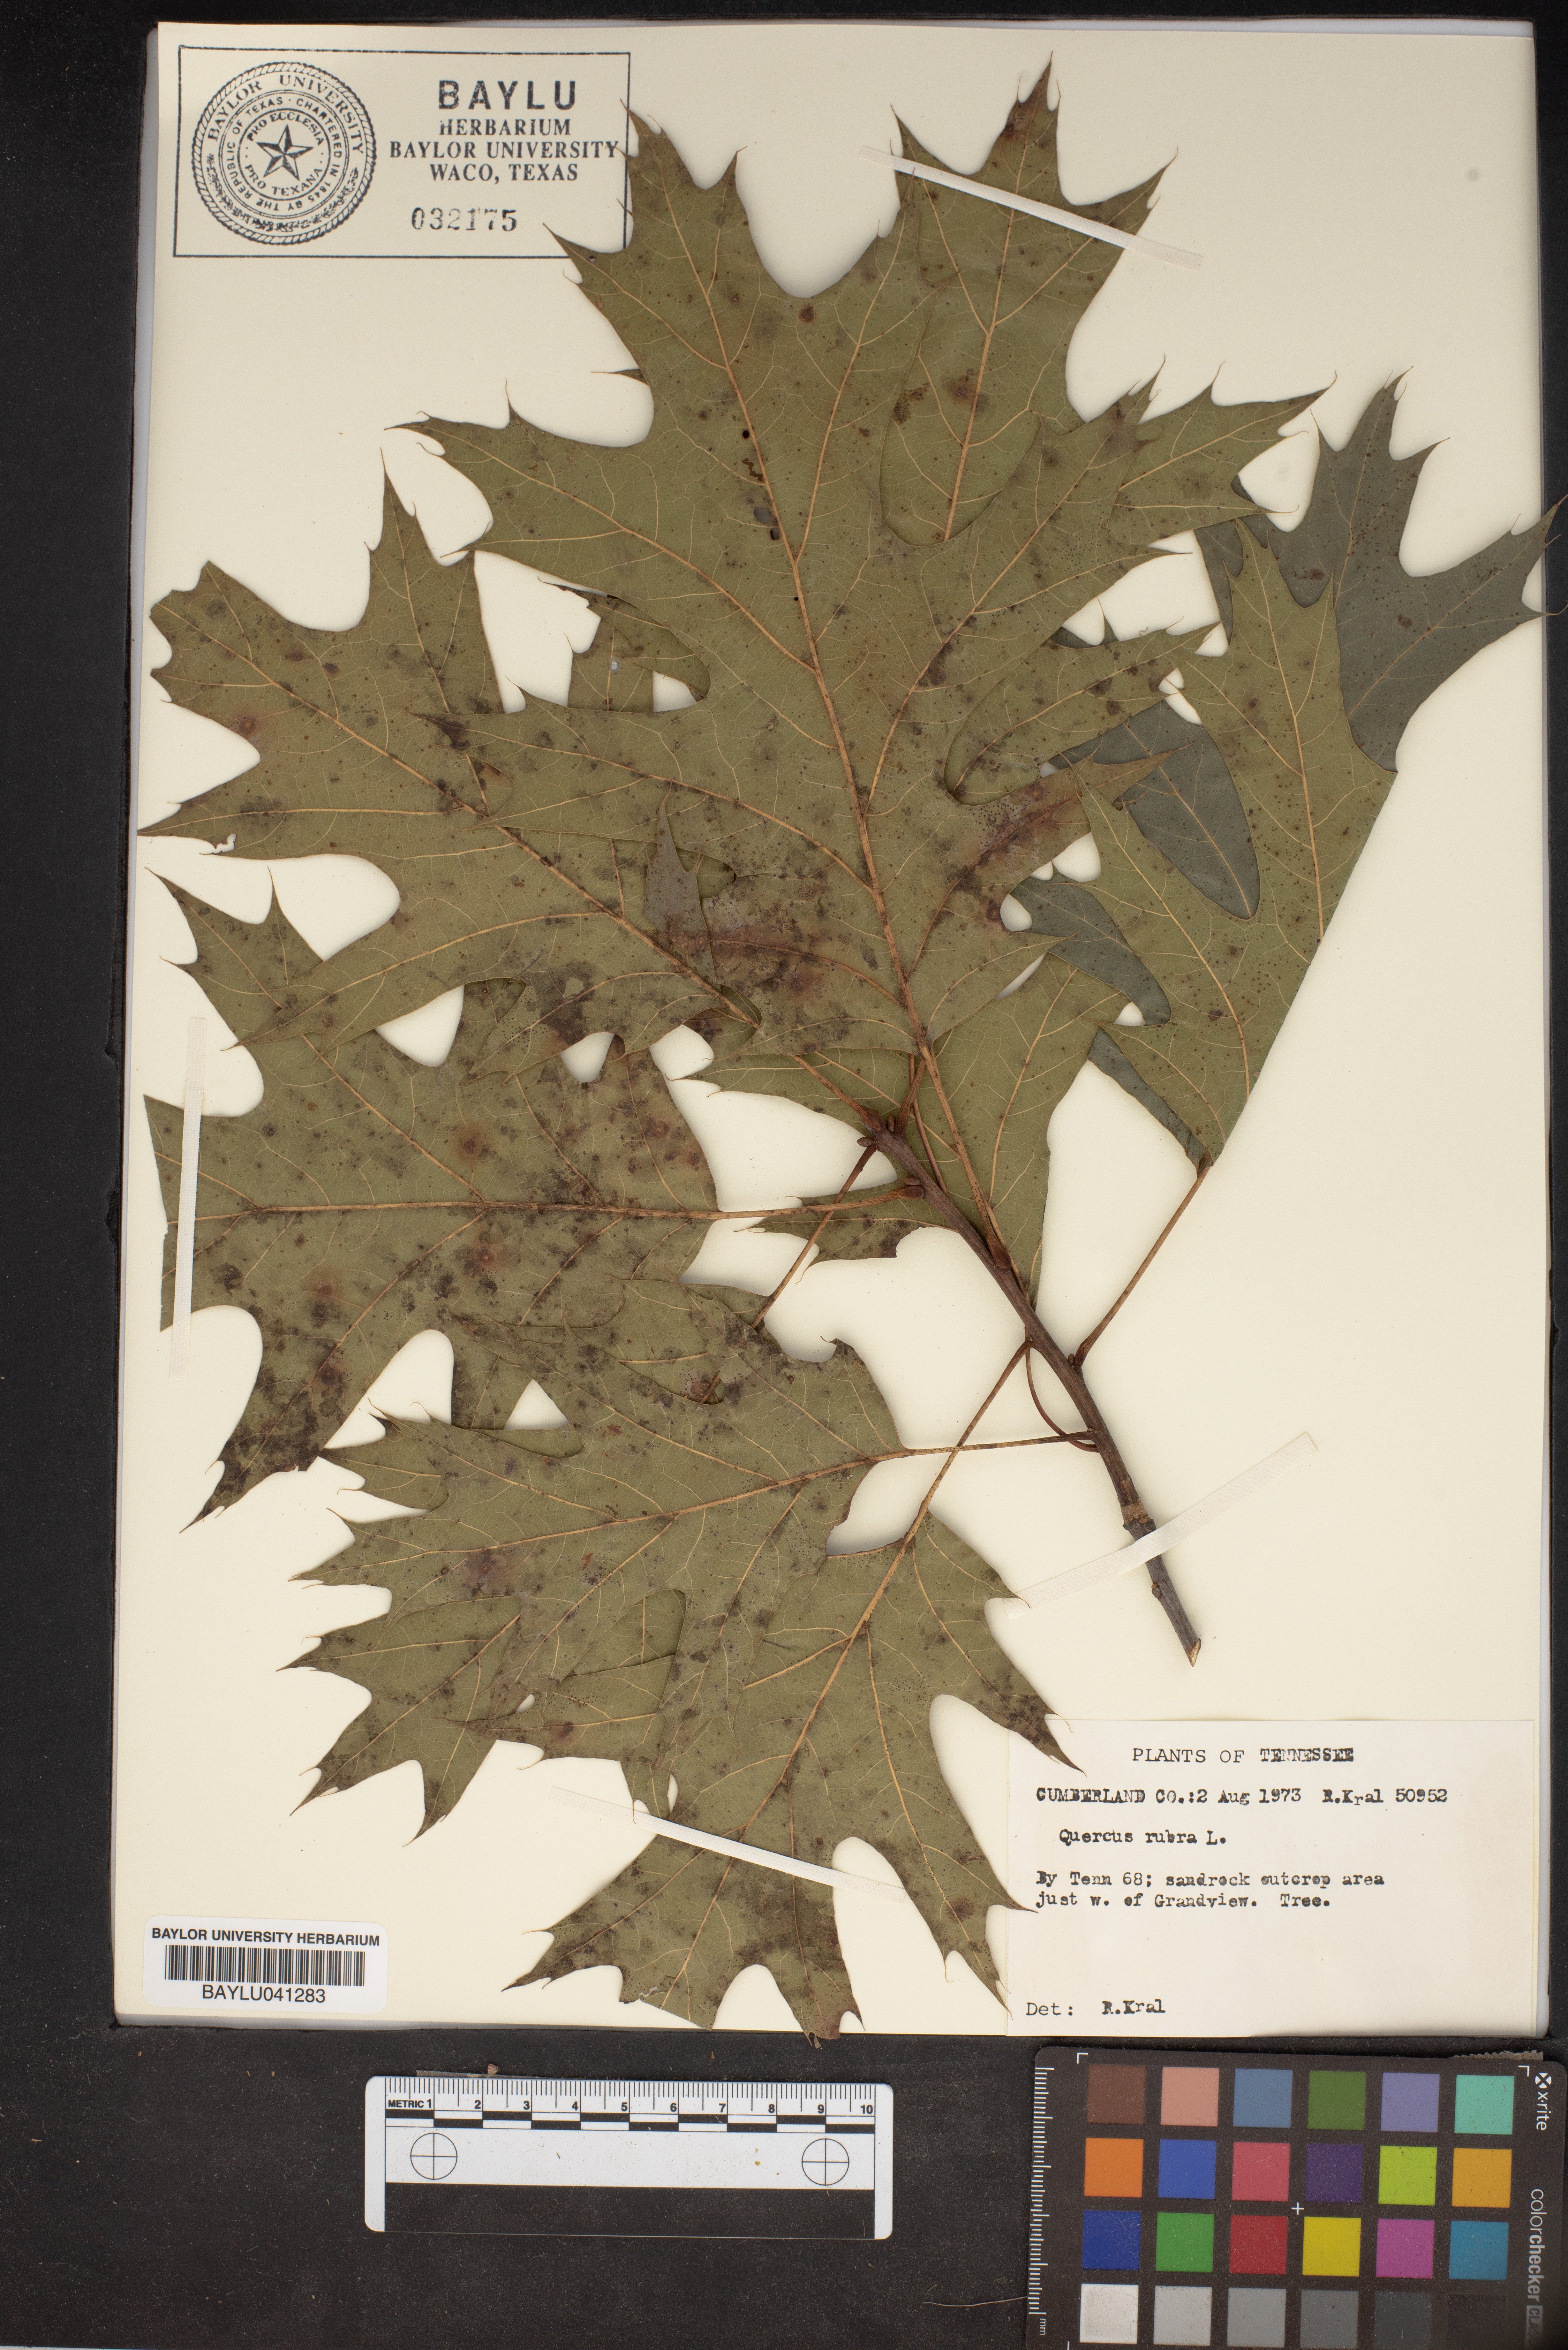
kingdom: Plantae
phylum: Tracheophyta
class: Magnoliopsida
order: Fagales
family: Fagaceae
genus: Quercus
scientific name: Quercus rubra
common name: Red oak
